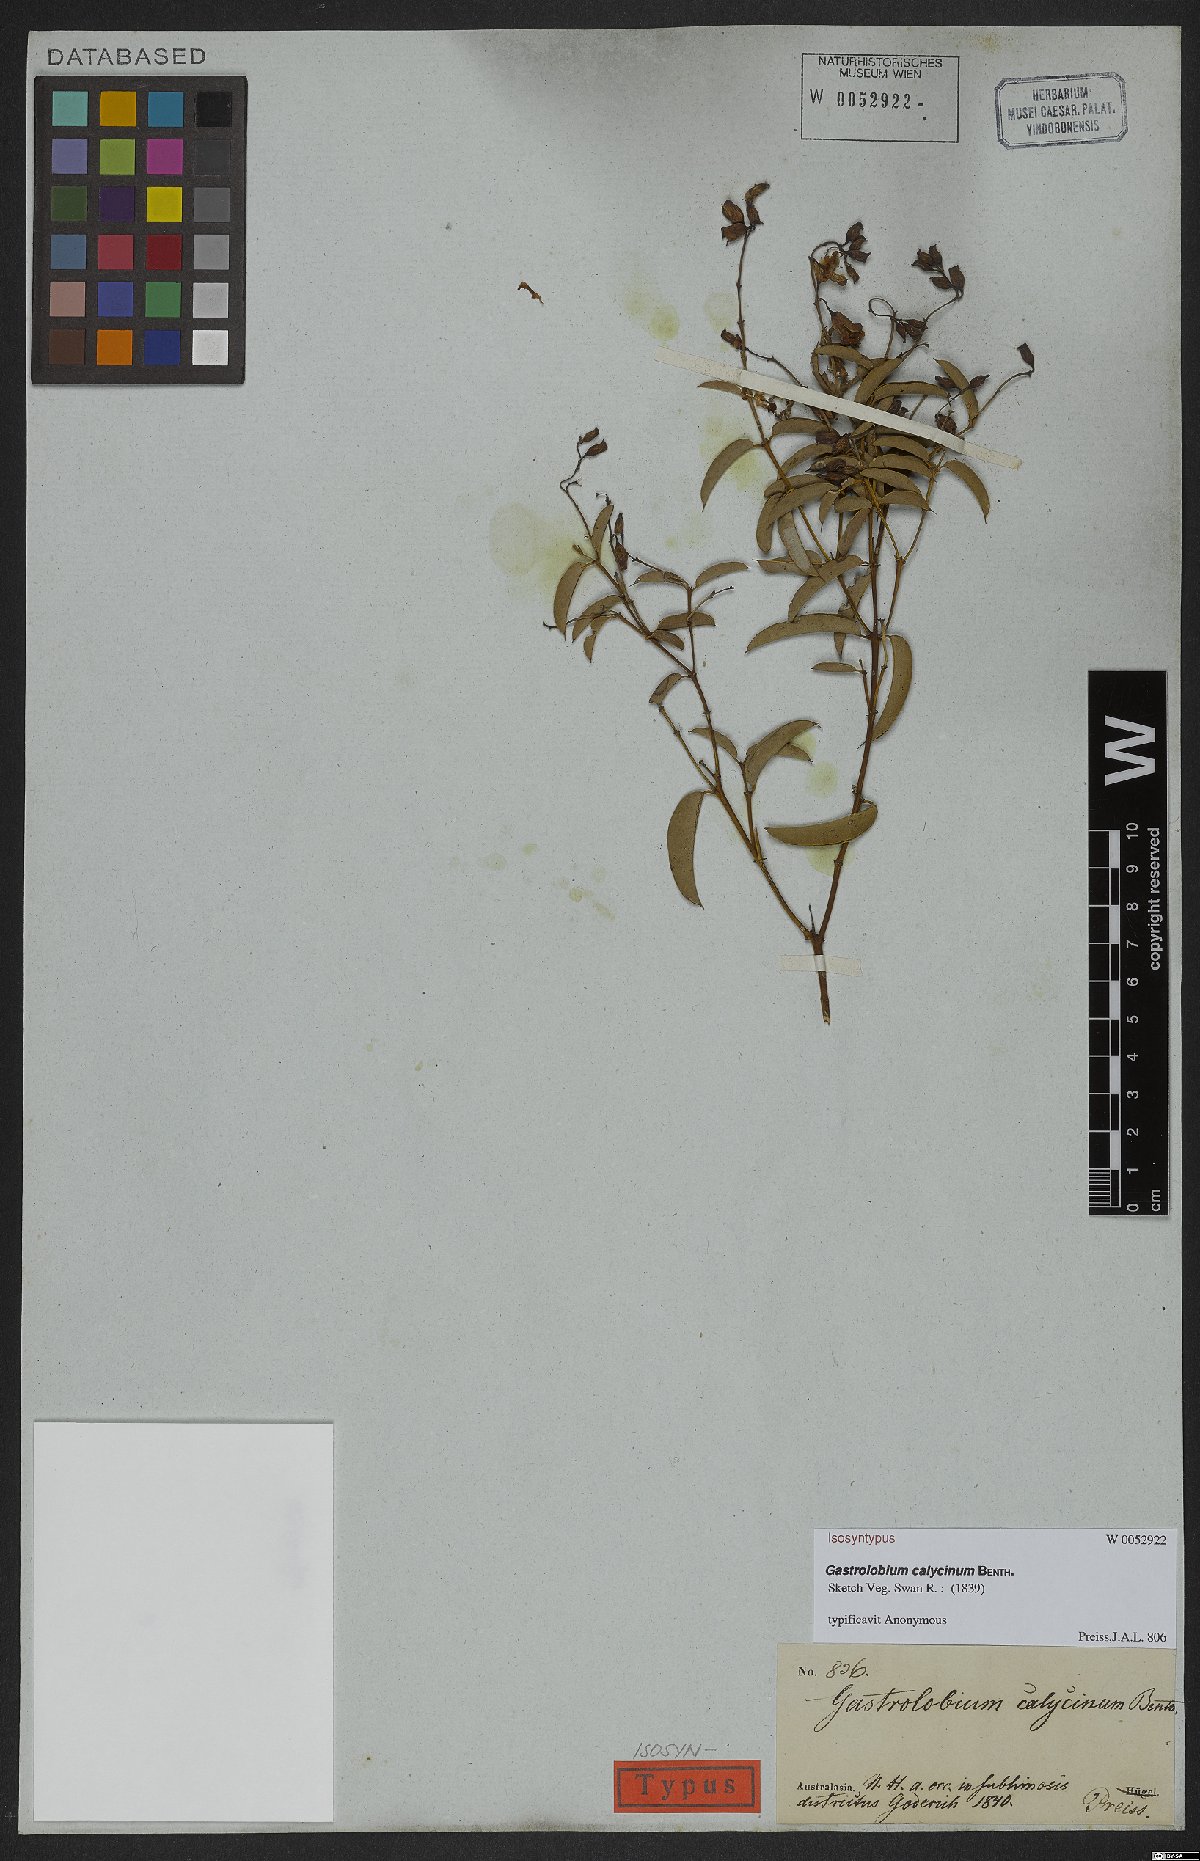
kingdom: Plantae
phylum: Tracheophyta
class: Magnoliopsida
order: Fabales
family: Fabaceae
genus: Gastrolobium
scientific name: Gastrolobium calycinum
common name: York road poison
